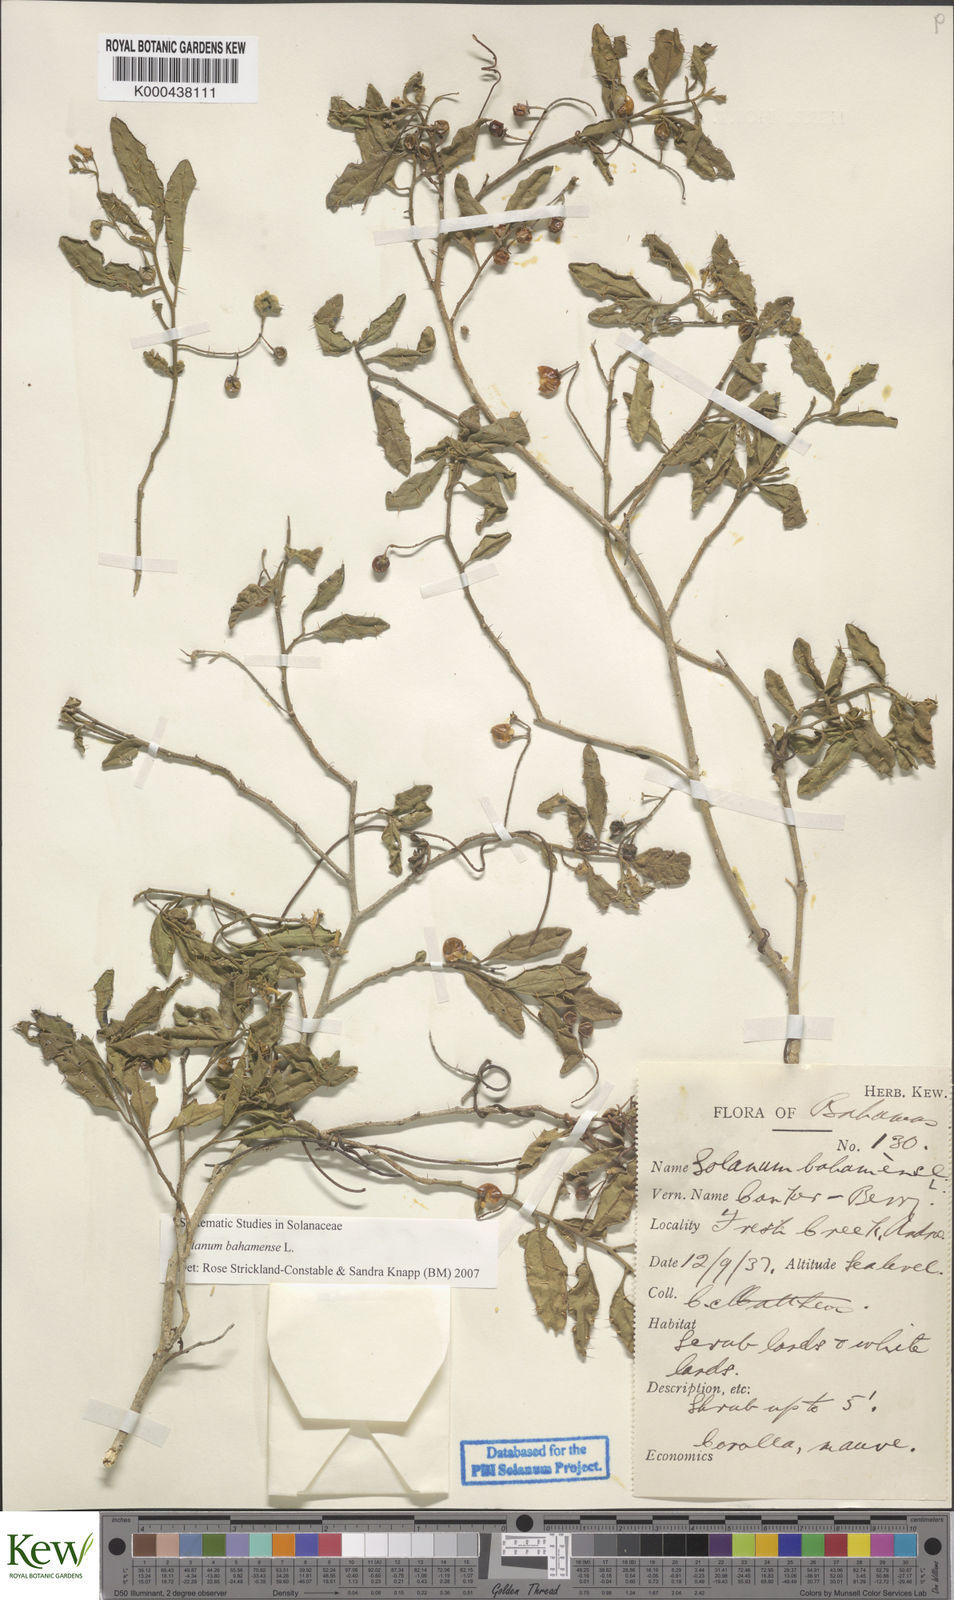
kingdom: Plantae
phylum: Tracheophyta
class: Magnoliopsida
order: Solanales
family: Solanaceae
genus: Solanum
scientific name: Solanum bahamense
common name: Canker-berry
